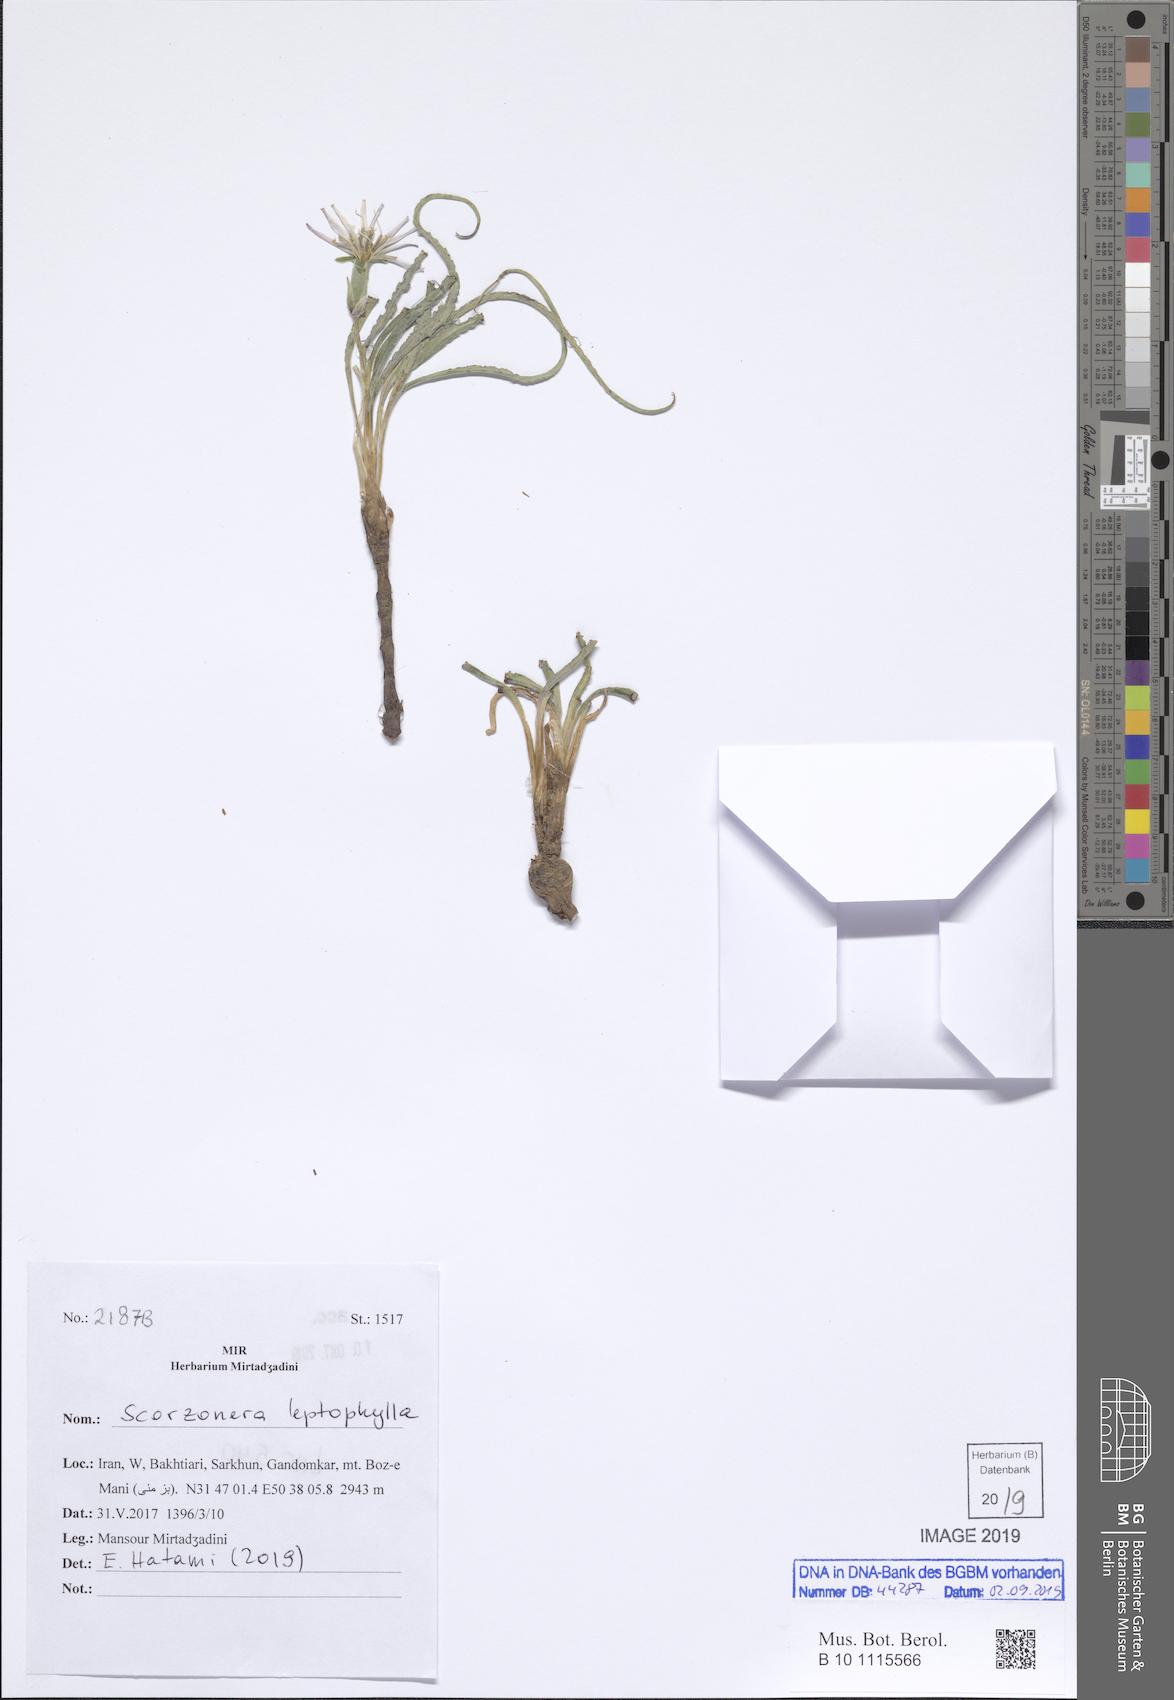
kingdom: Plantae
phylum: Tracheophyta
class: Magnoliopsida
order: Asterales
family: Asteraceae
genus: Candollea
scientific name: Candollea leptophylla
